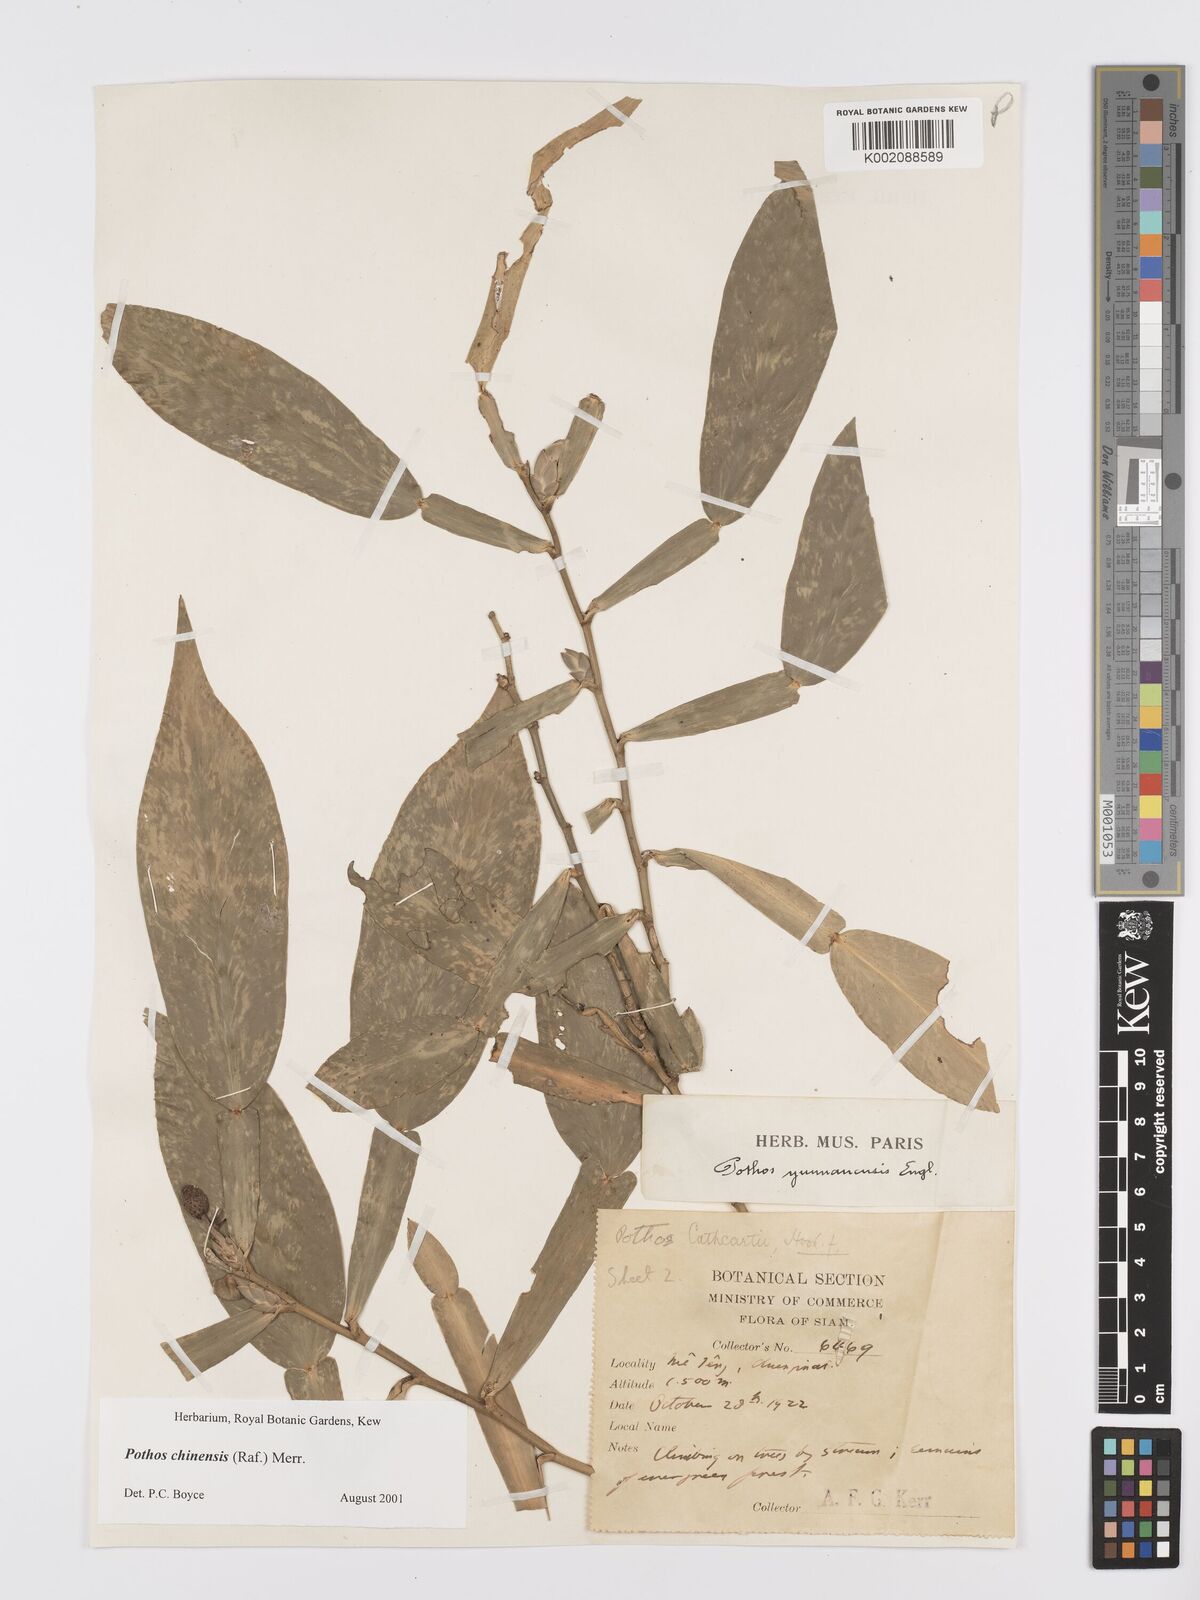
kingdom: Plantae
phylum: Tracheophyta
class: Liliopsida
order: Alismatales
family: Araceae
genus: Pothos
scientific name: Pothos chinensis
